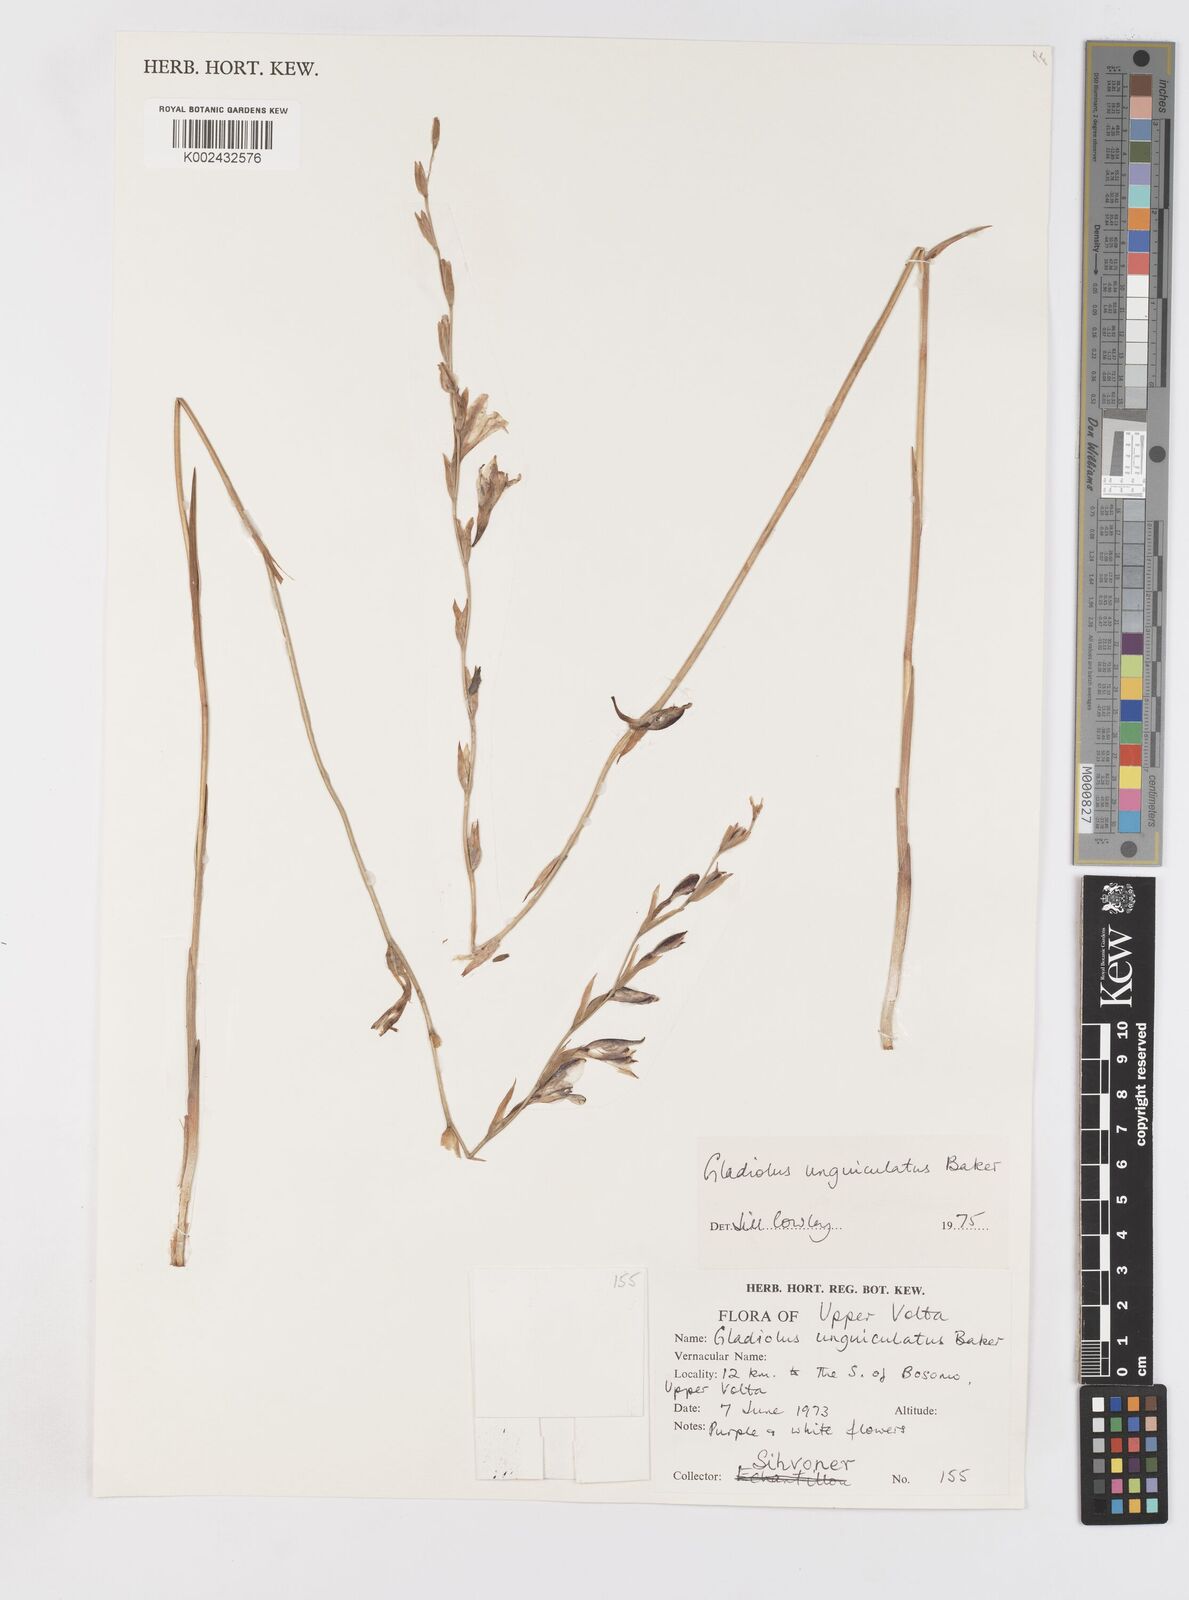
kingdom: Plantae
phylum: Tracheophyta
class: Liliopsida
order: Asparagales
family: Iridaceae
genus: Gladiolus
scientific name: Gladiolus unguiculatus
